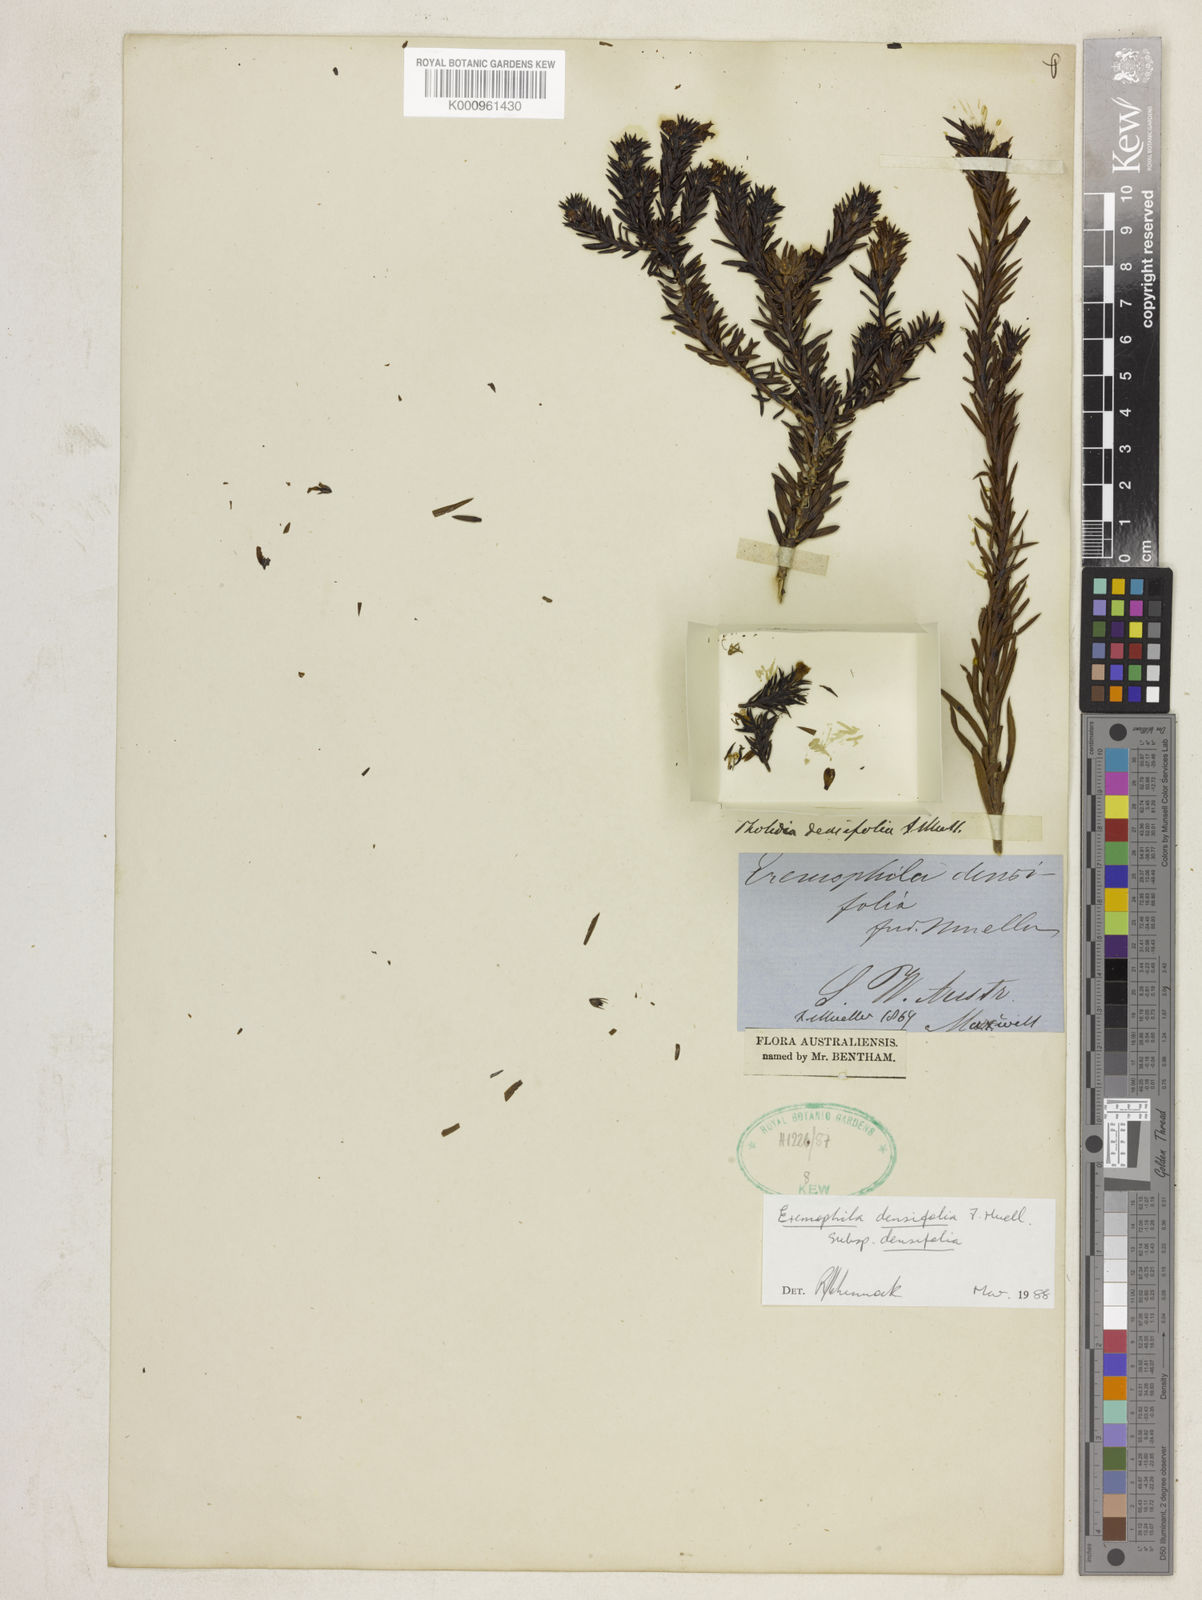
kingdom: Plantae
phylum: Tracheophyta
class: Magnoliopsida
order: Lamiales
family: Scrophulariaceae
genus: Eremophila
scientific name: Eremophila densifolia
